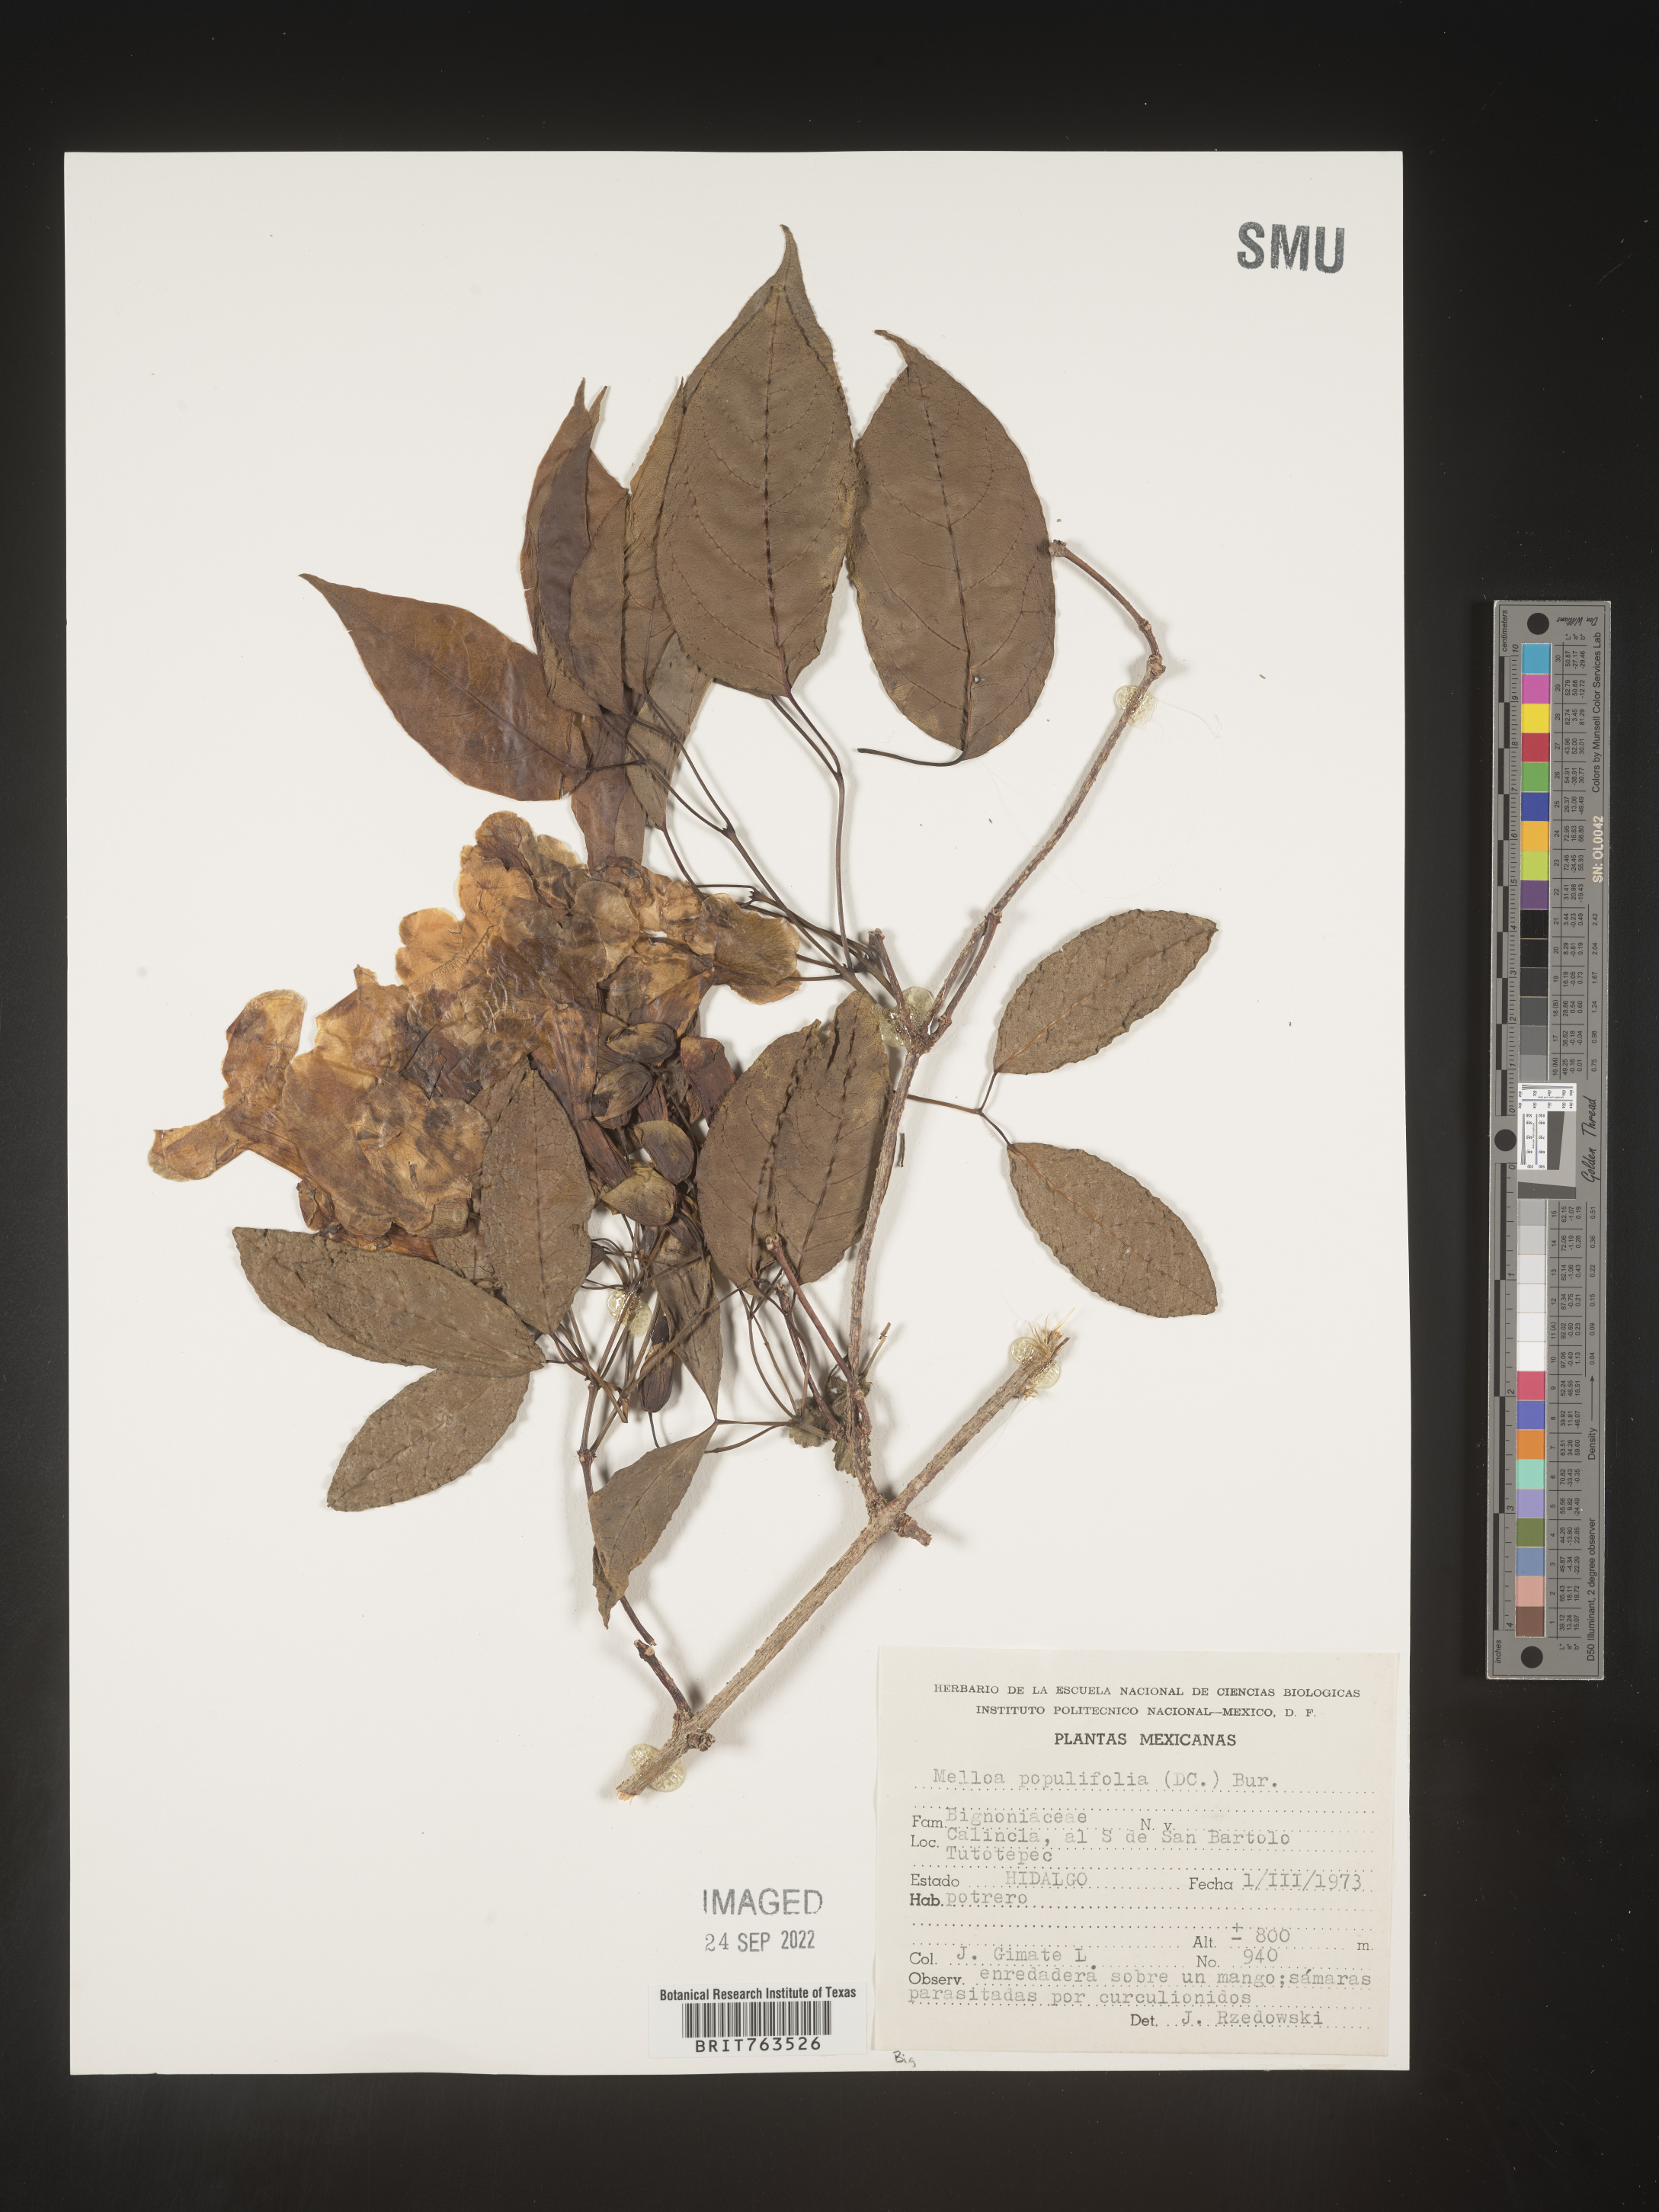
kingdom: Plantae
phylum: Tracheophyta
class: Magnoliopsida
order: Lamiales
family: Bignoniaceae
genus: Dolichandra
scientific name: Dolichandra
